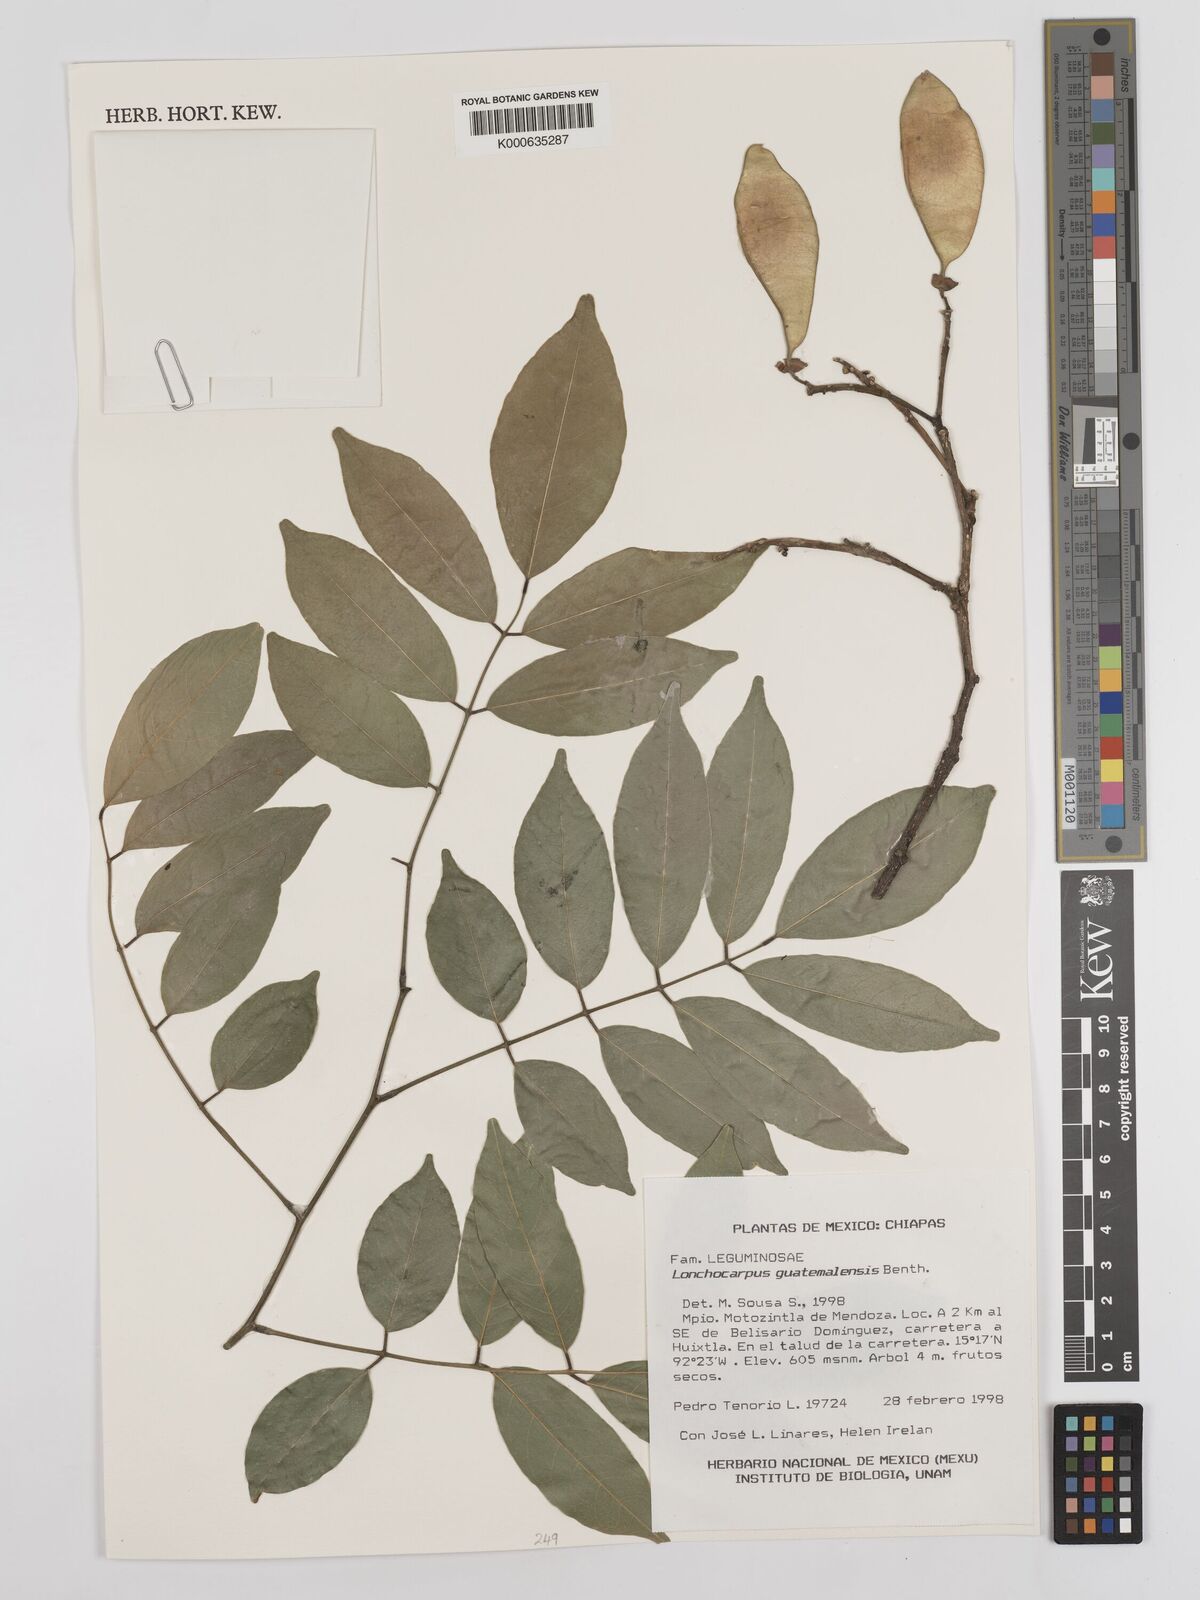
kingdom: Plantae
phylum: Tracheophyta
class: Magnoliopsida
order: Fabales
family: Fabaceae
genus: Lonchocarpus
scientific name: Lonchocarpus guatemalensis
